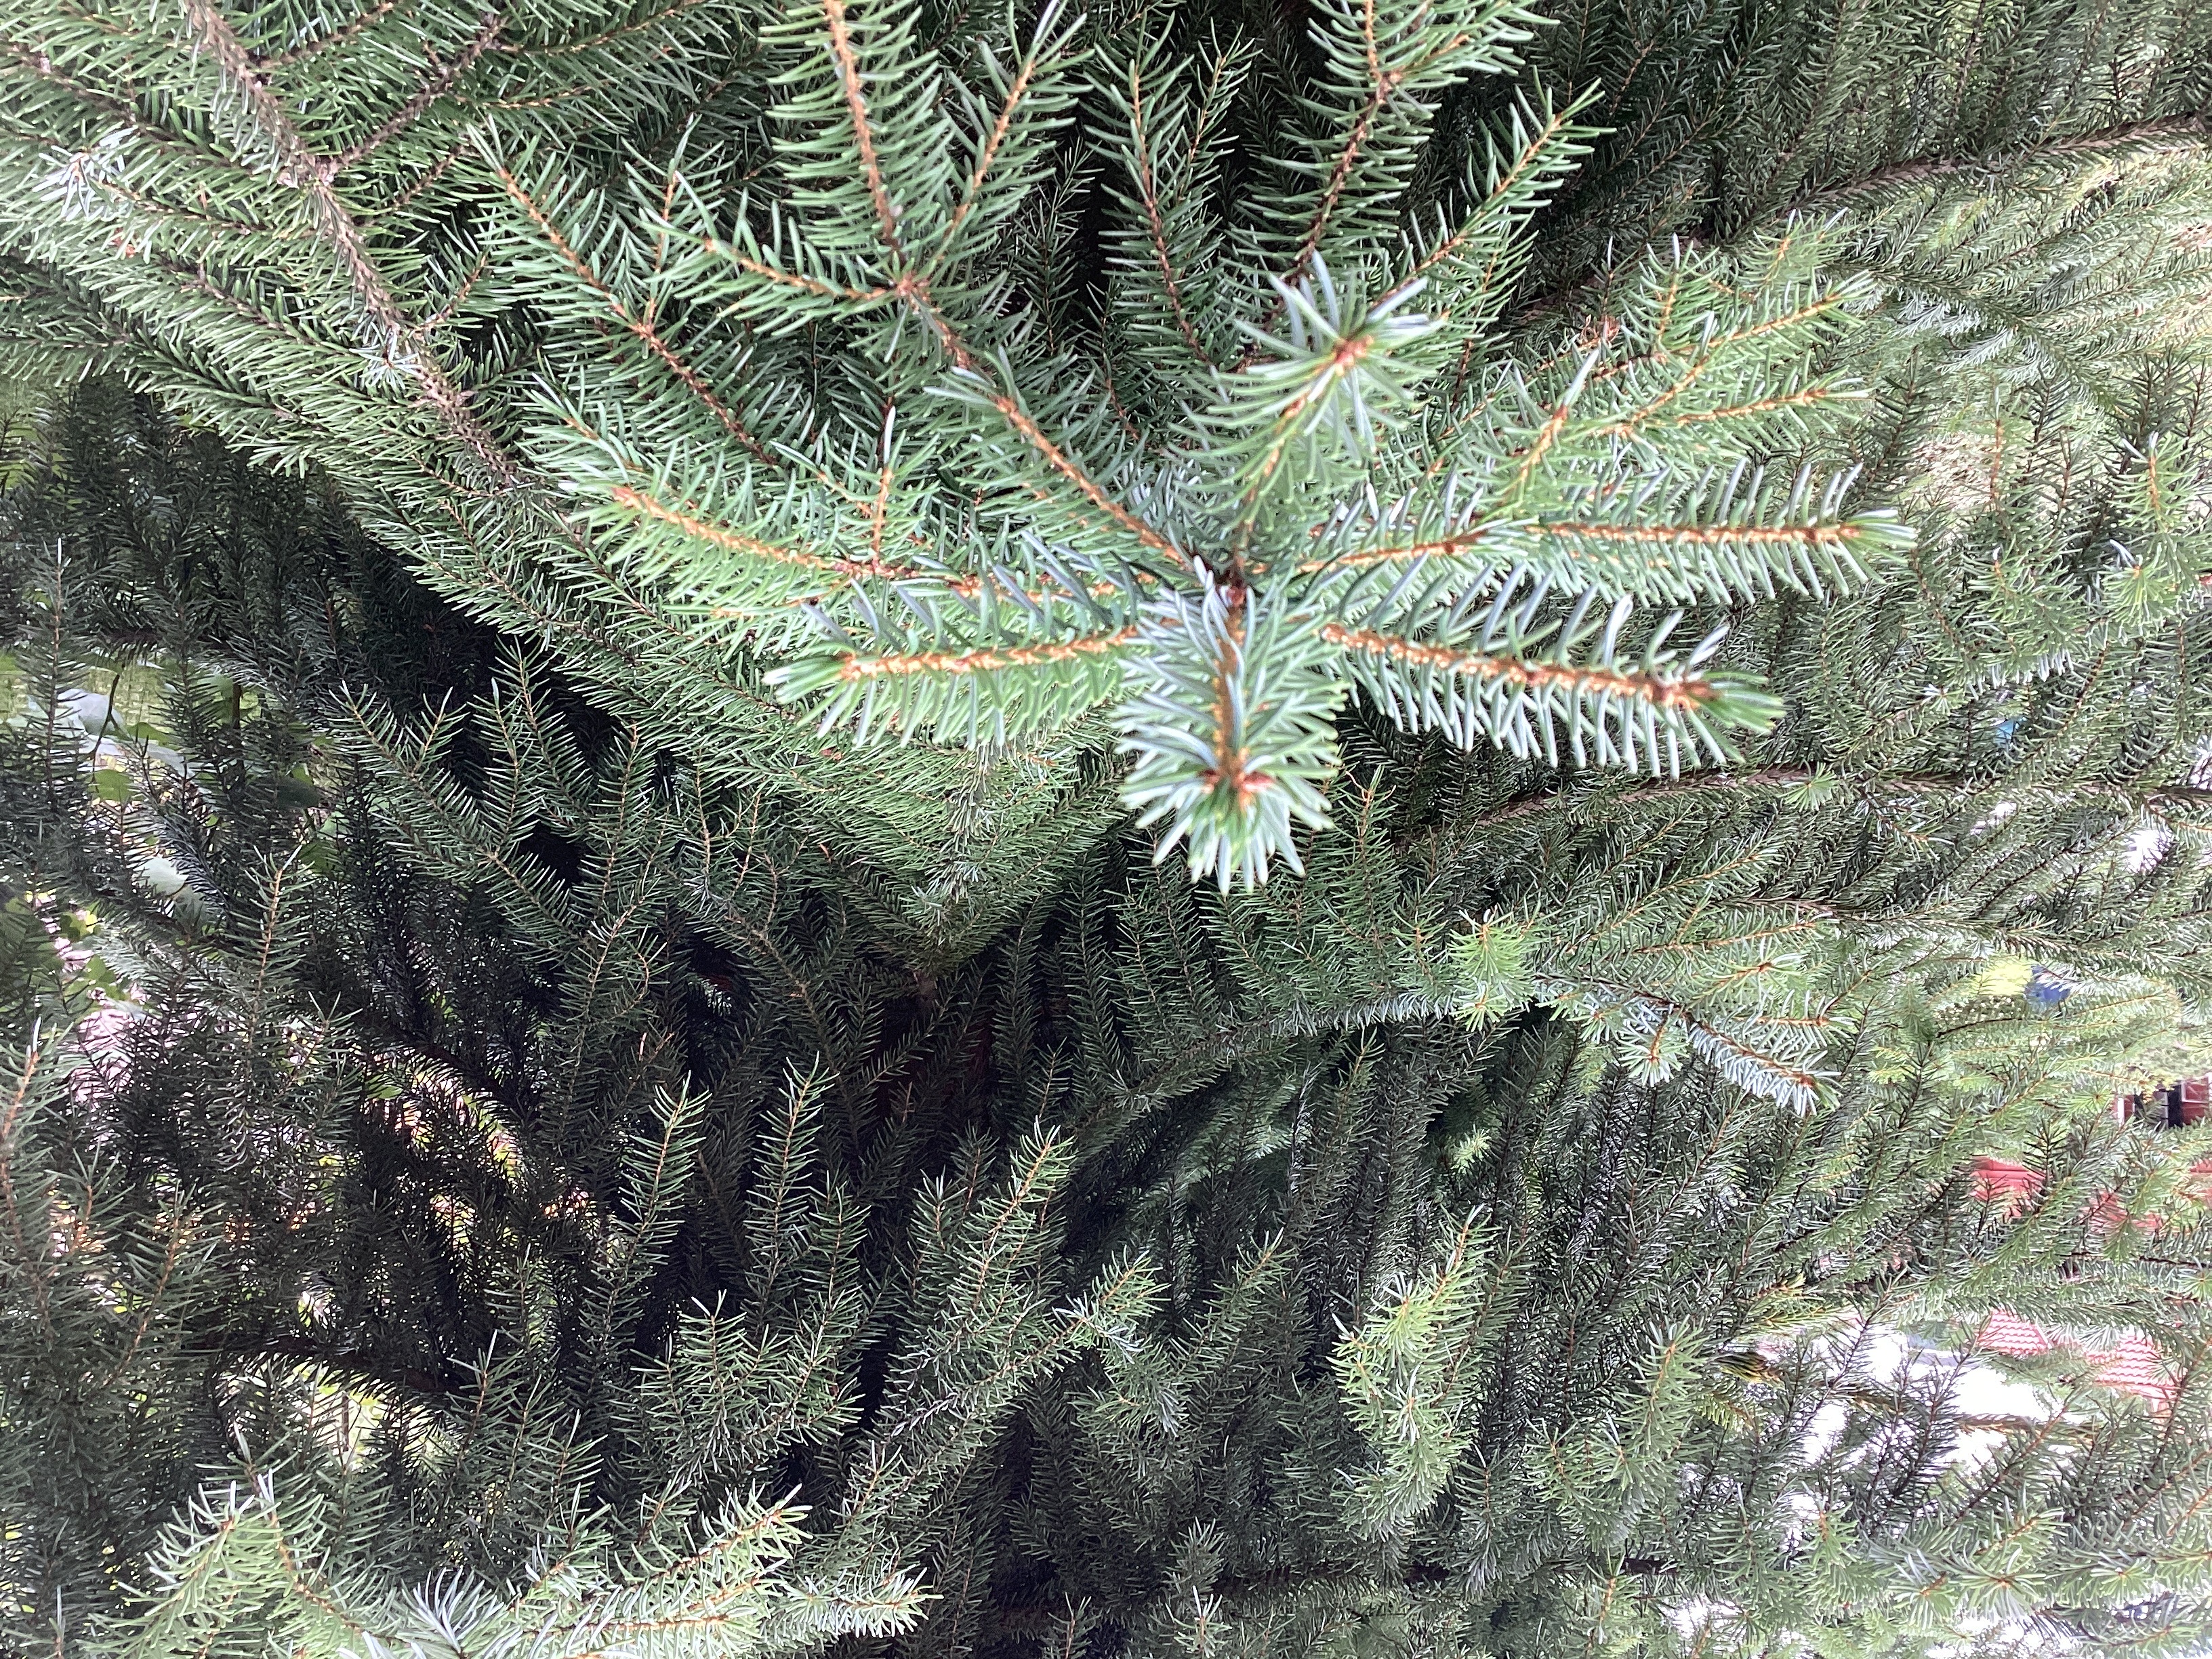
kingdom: Plantae
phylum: Tracheophyta
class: Pinopsida
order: Pinales
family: Pinaceae
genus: Picea
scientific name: Picea omorika
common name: serbergran
